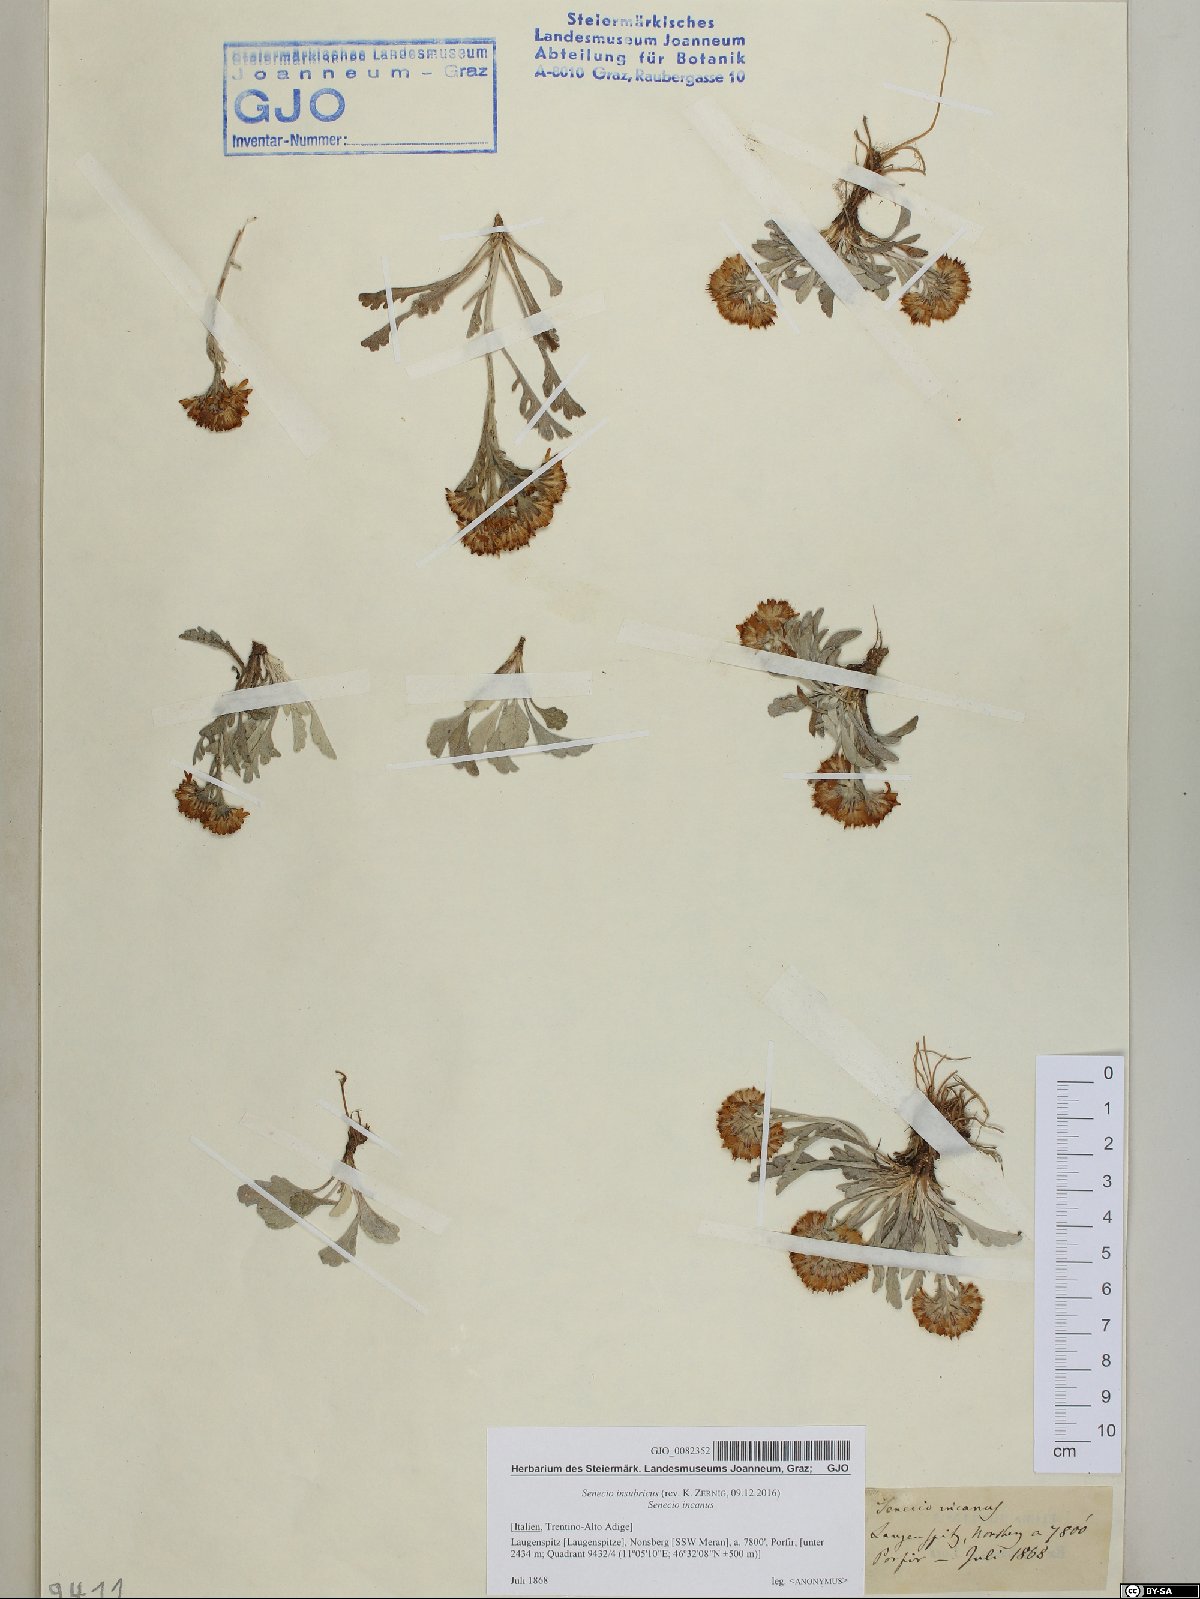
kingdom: Plantae
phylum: Tracheophyta
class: Magnoliopsida
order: Asterales
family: Asteraceae
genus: Jacobaea
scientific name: Jacobaea insubrica
